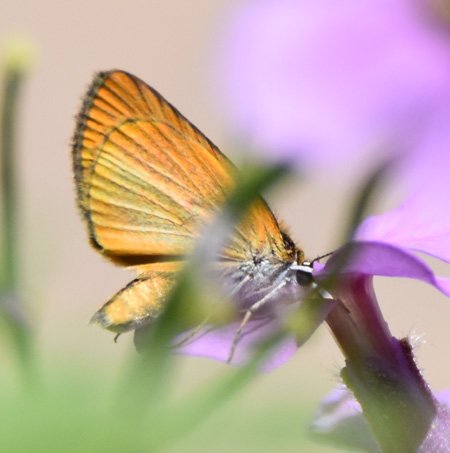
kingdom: Animalia
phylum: Arthropoda
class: Insecta
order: Lepidoptera
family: Hesperiidae
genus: Thymelicus
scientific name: Thymelicus lineola
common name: European Skipper
